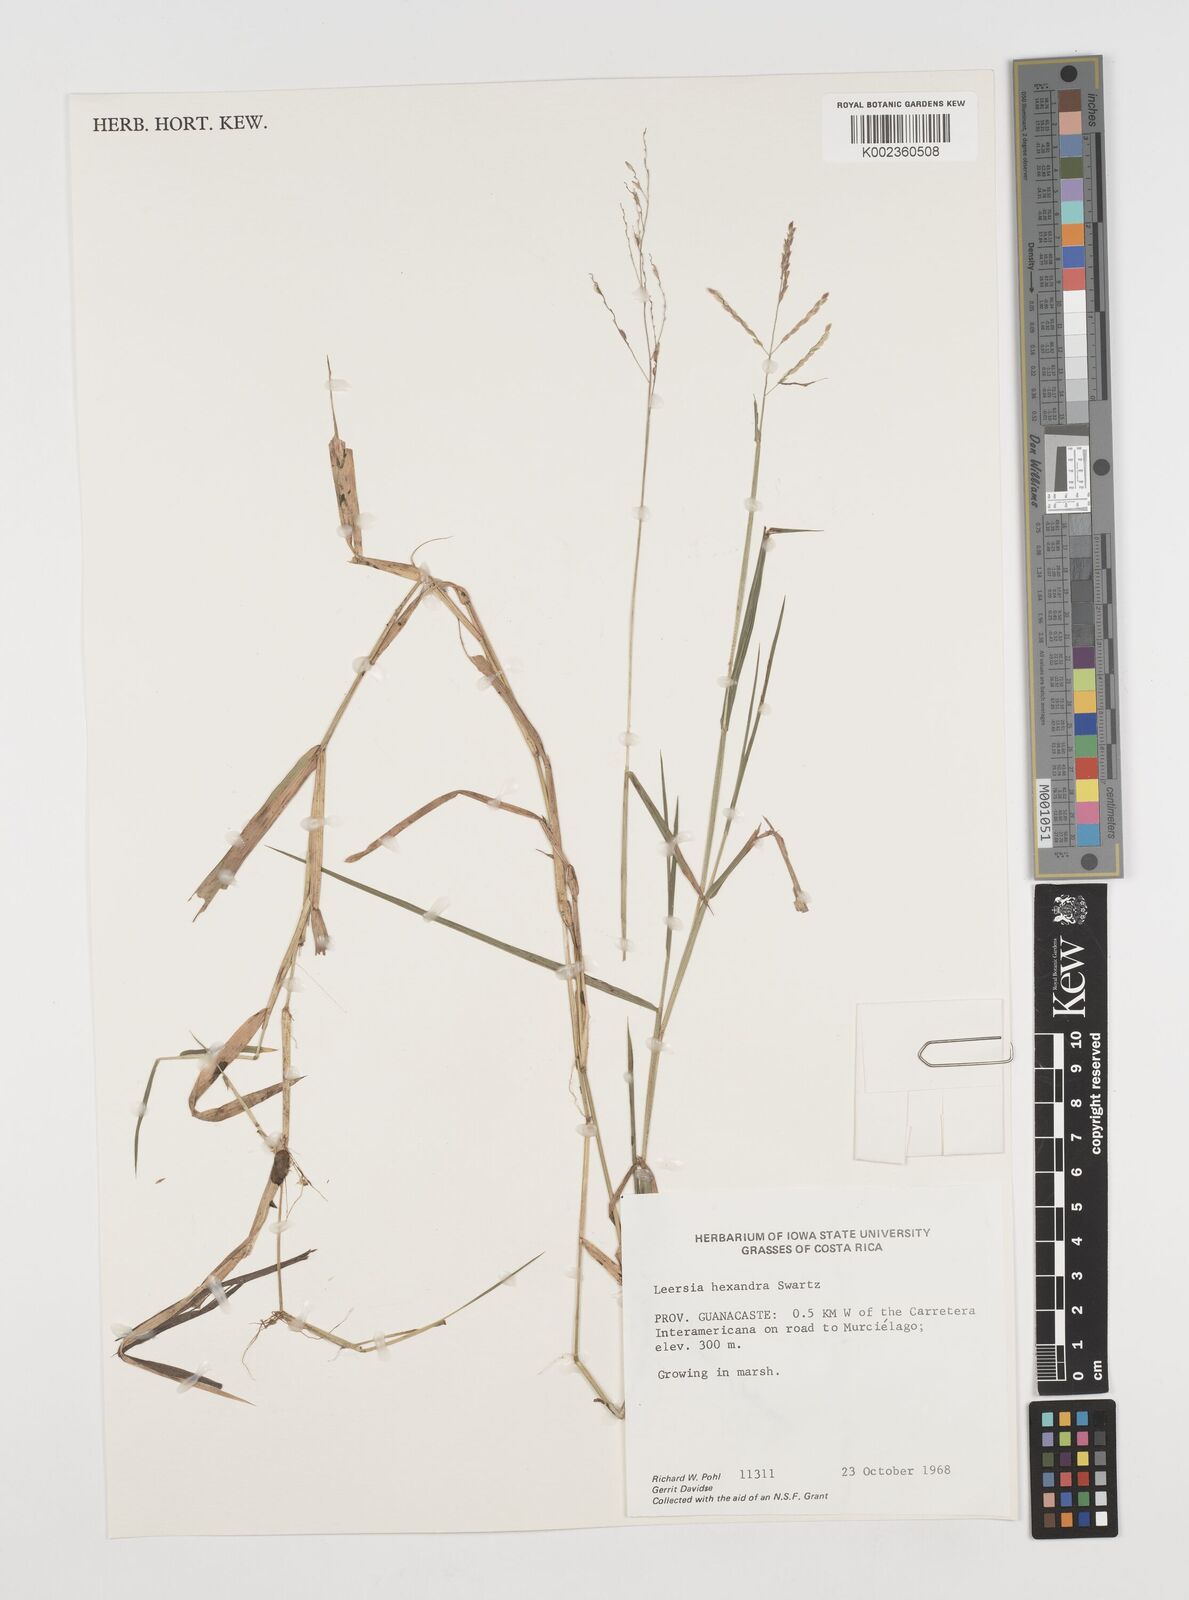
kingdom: Plantae
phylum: Tracheophyta
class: Liliopsida
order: Poales
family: Poaceae
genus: Leersia
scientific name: Leersia hexandra
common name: Southern cut grass
